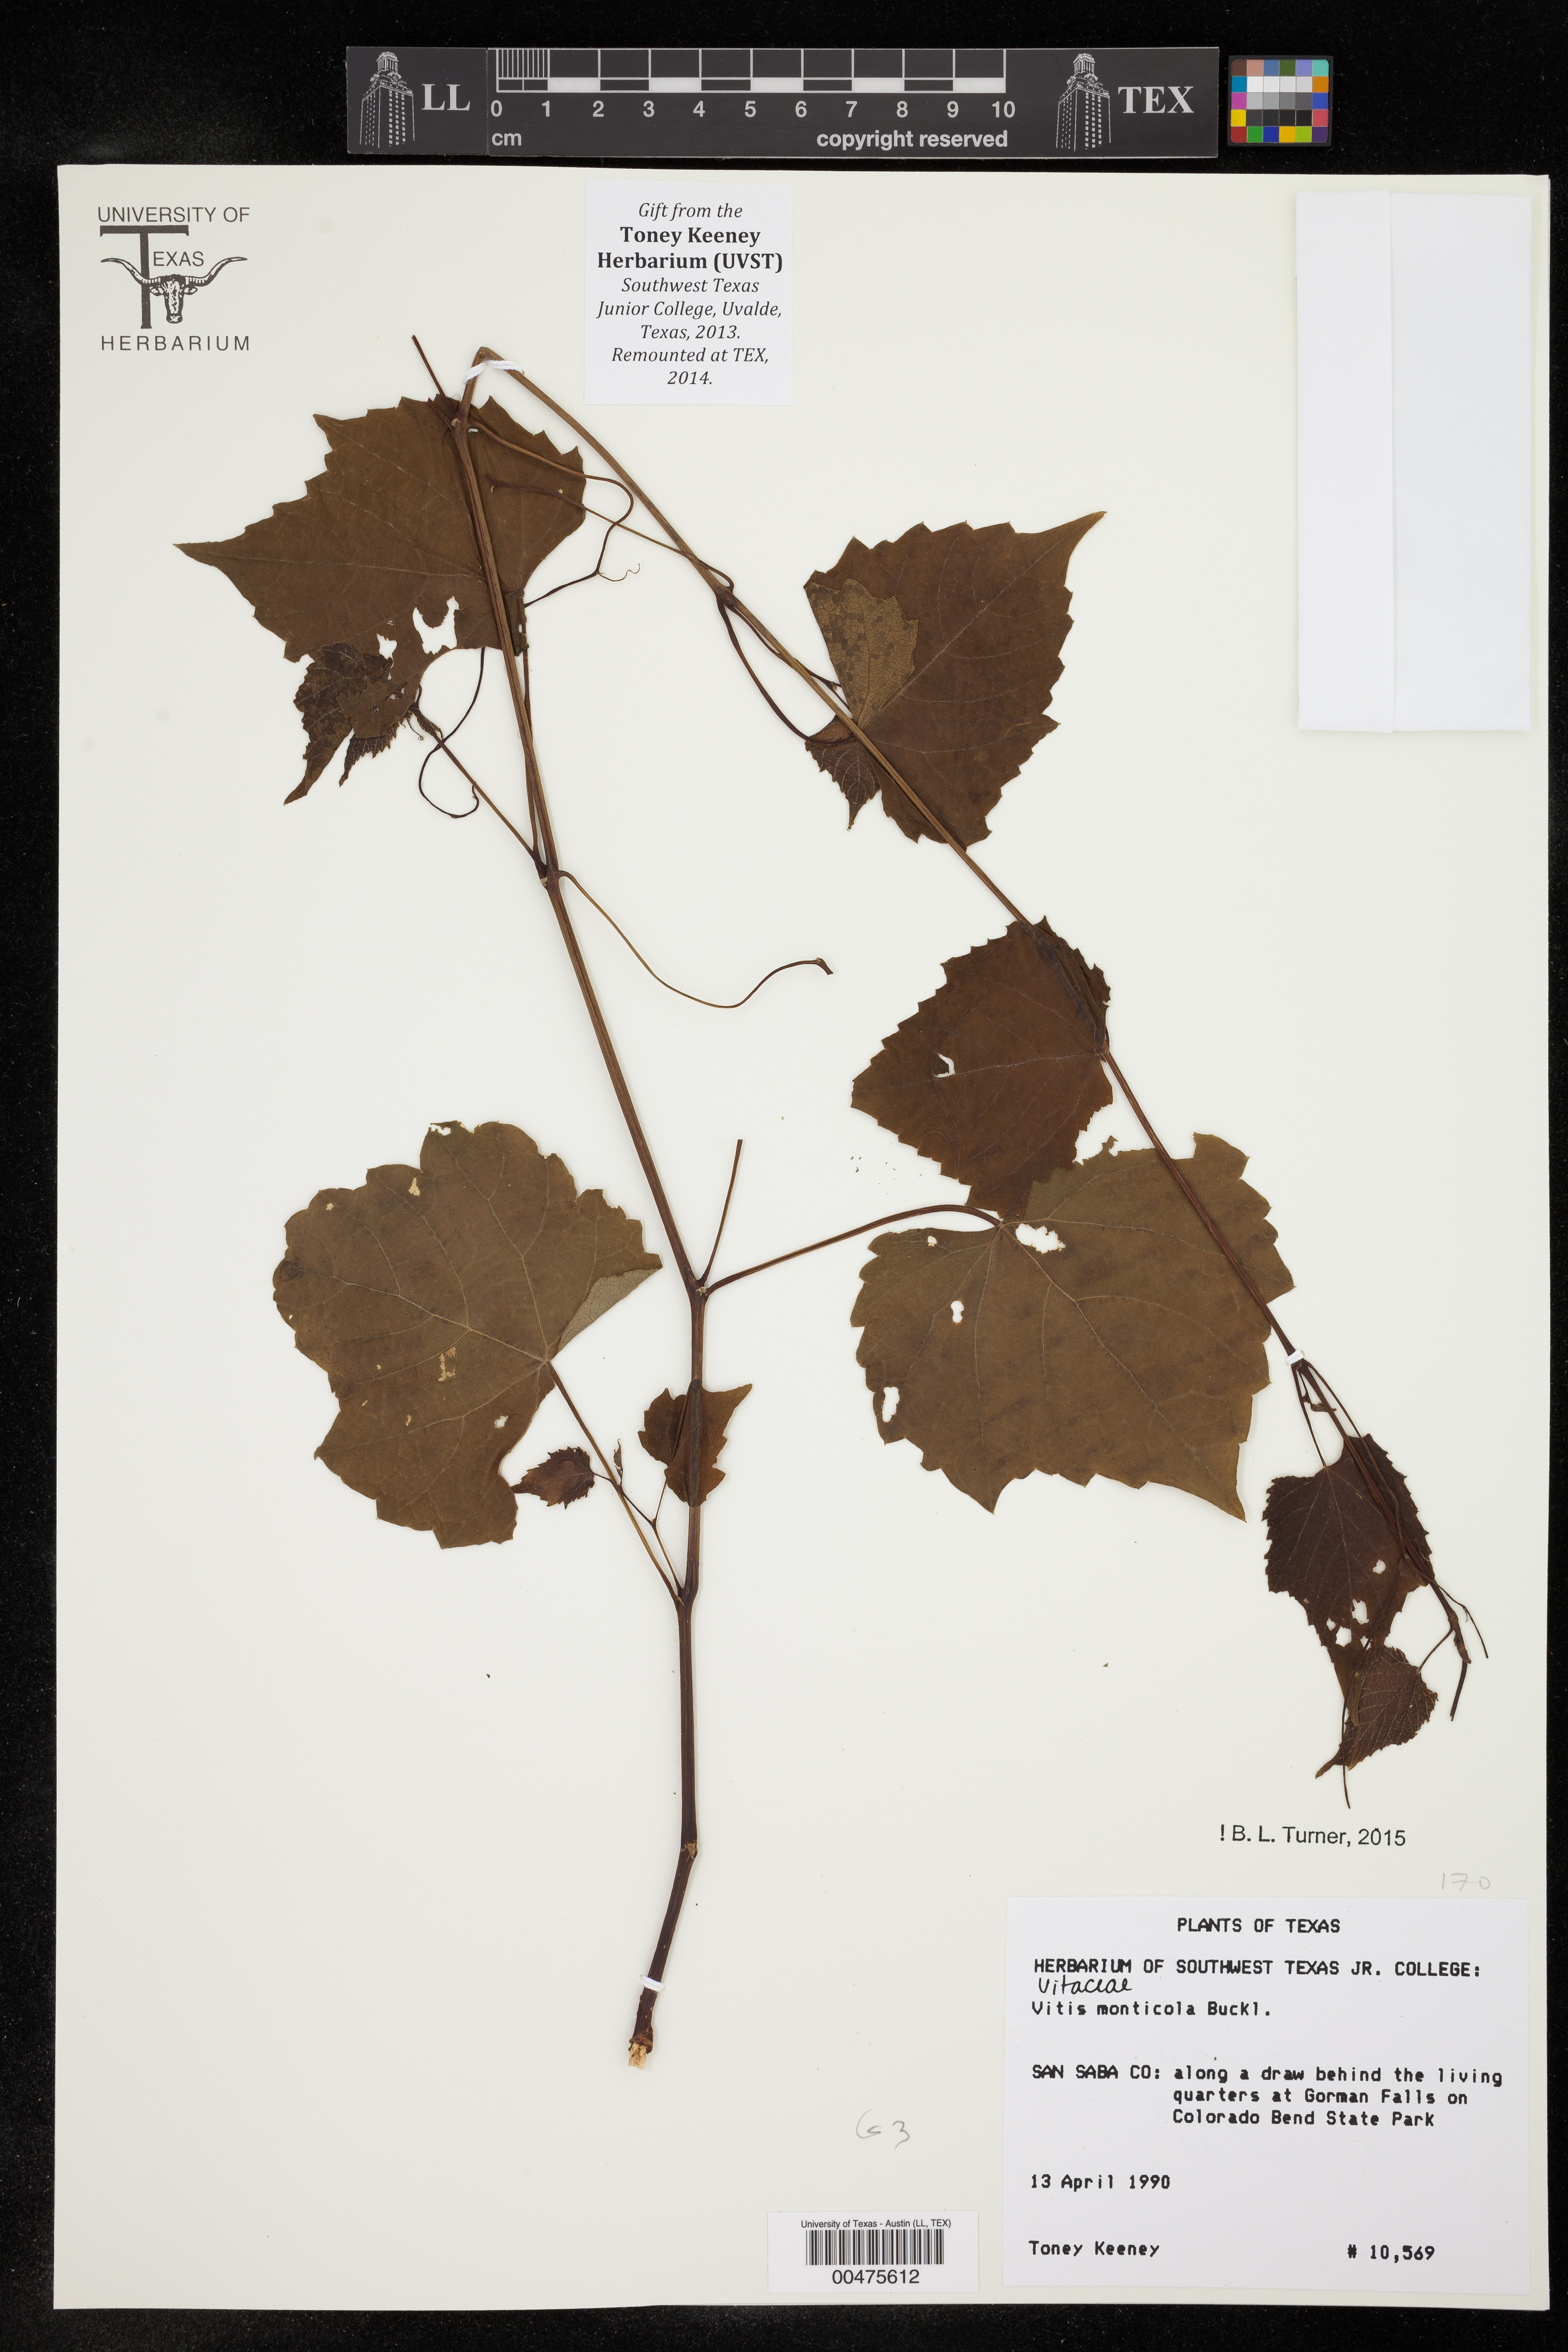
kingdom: Plantae
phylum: Tracheophyta
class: Magnoliopsida
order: Vitales
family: Vitaceae
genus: Vitis
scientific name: Vitis monticola
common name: Mountain grape
